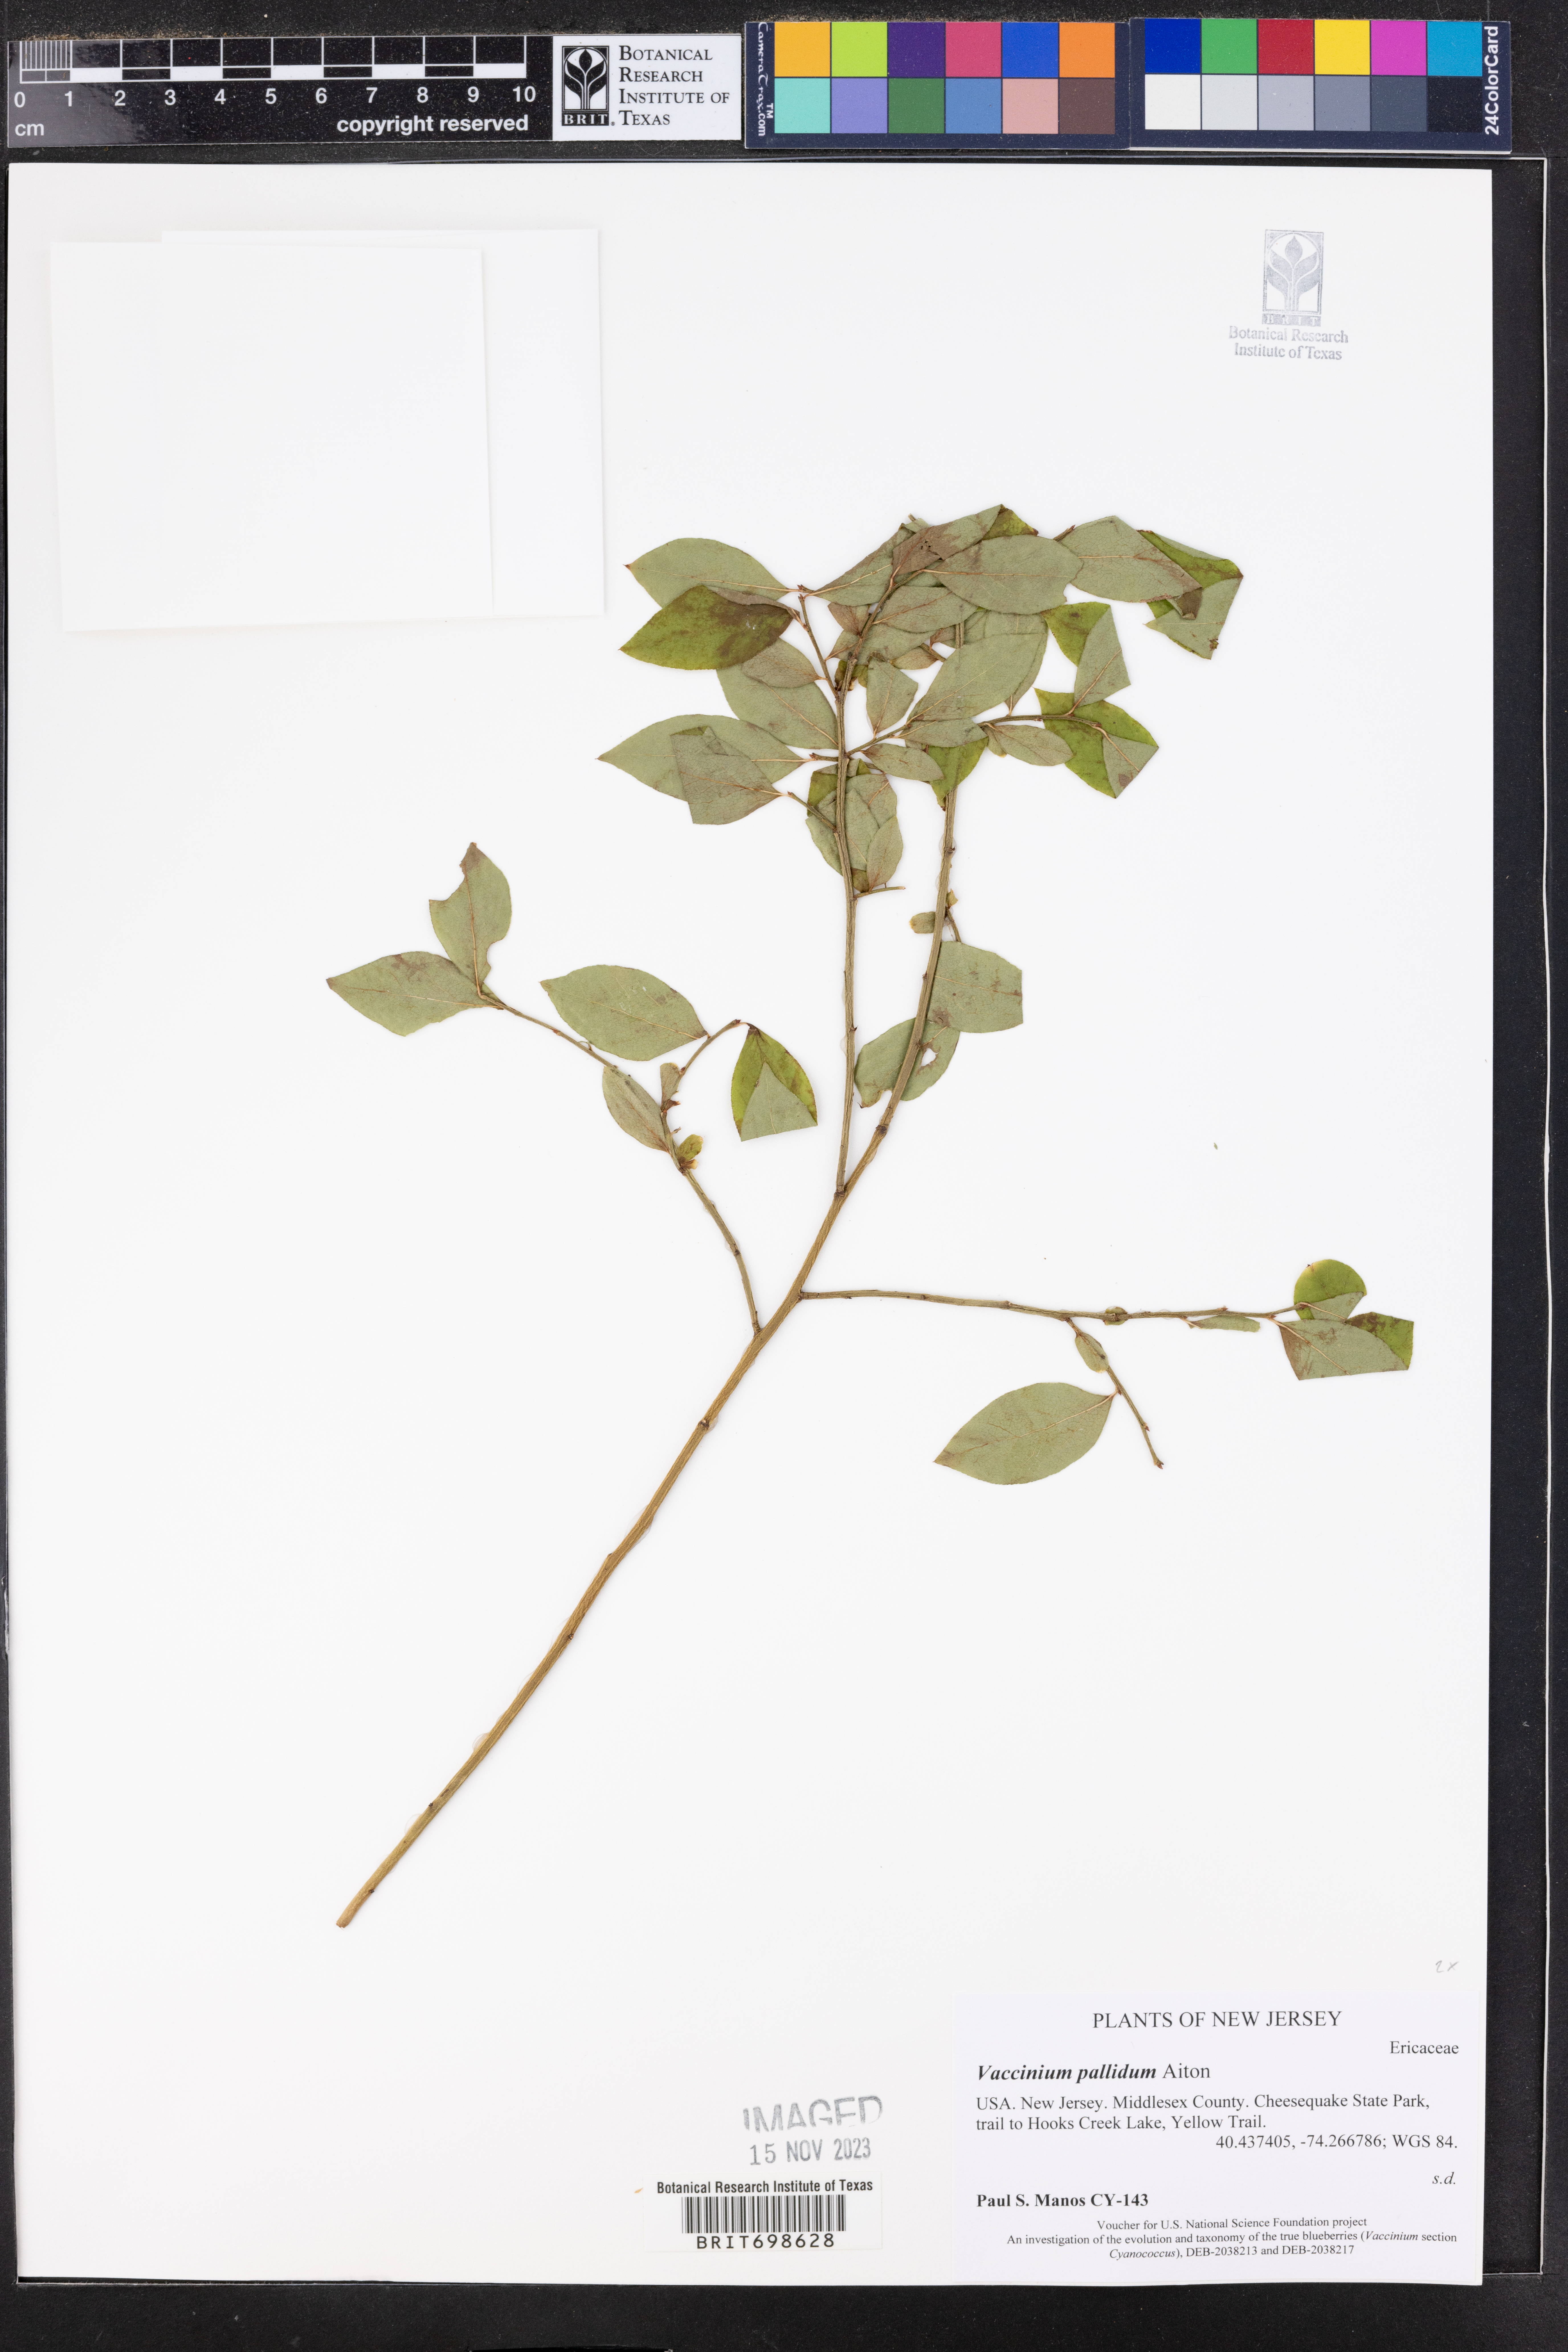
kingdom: Plantae
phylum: Tracheophyta
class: Magnoliopsida
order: Ericales
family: Ericaceae
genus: Vaccinium
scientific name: Vaccinium pallidum
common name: Blue ridge blueberry
